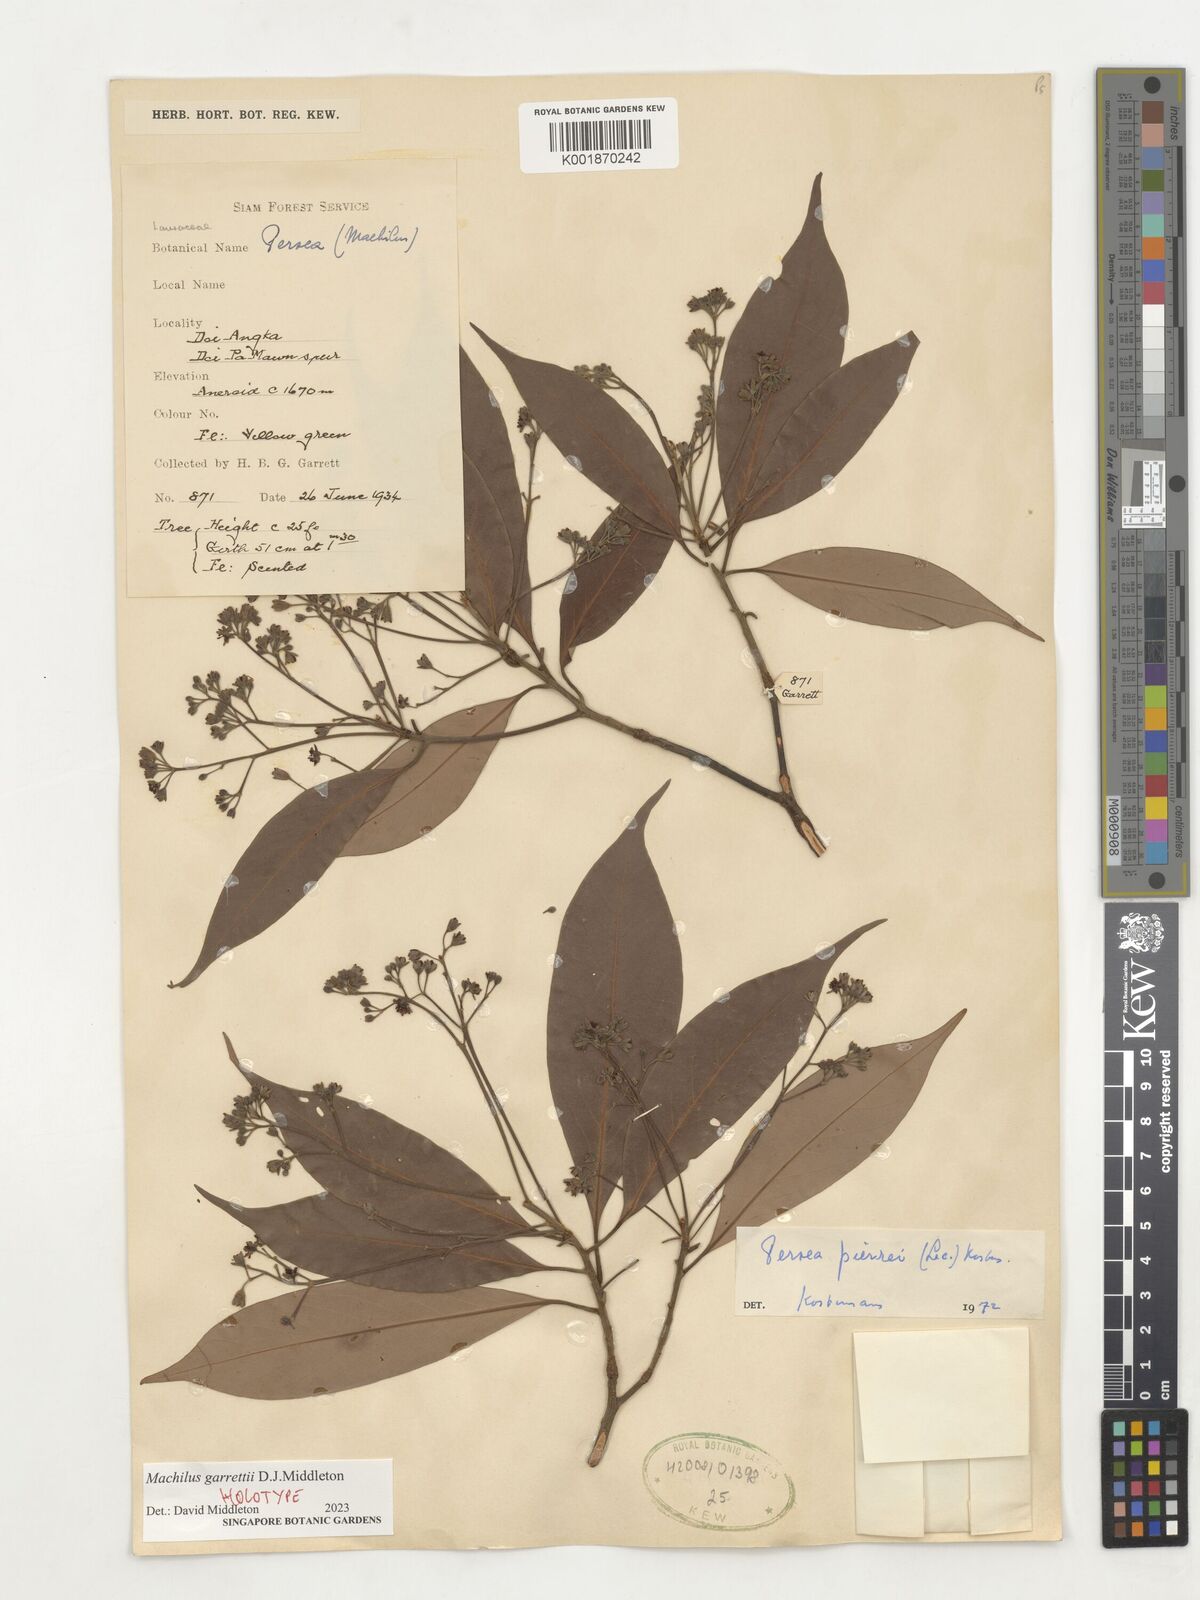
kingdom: Plantae
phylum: Tracheophyta
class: Magnoliopsida
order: Laurales
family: Lauraceae
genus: Machilus
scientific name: Machilus
